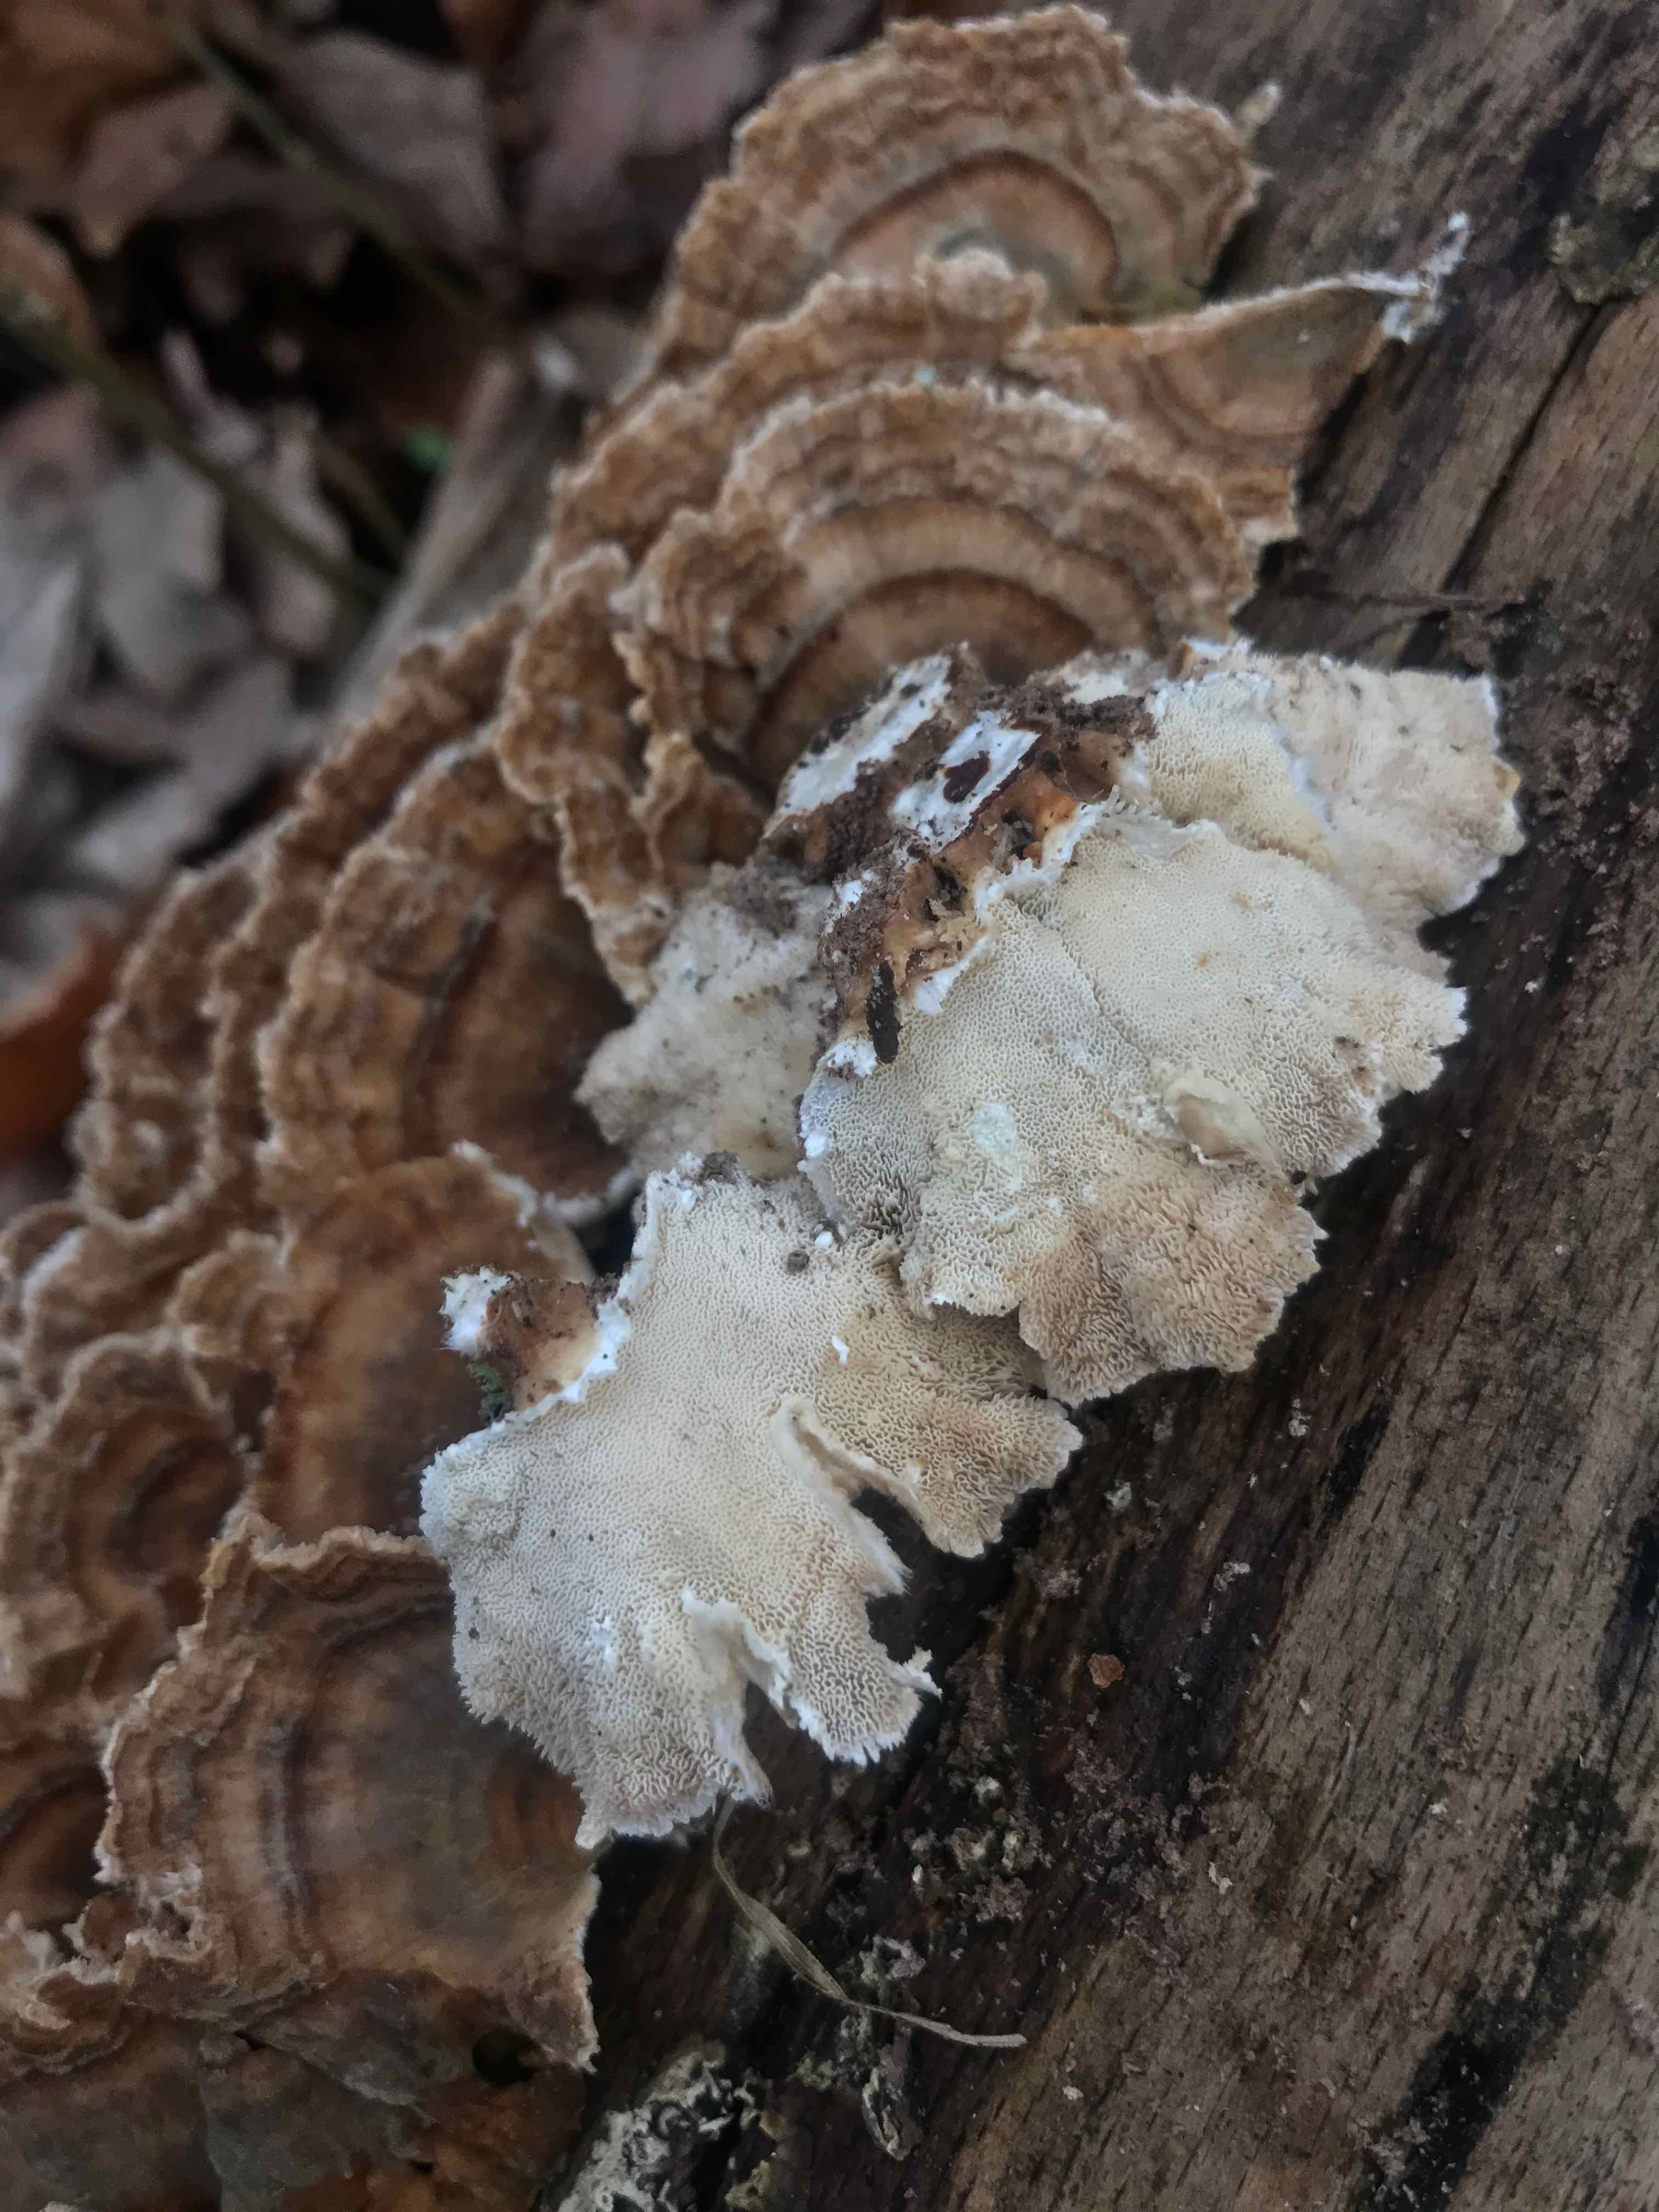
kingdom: Fungi
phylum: Basidiomycota
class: Agaricomycetes
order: Polyporales
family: Polyporaceae
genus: Trametes
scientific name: Trametes versicolor
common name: broget læderporesvamp
